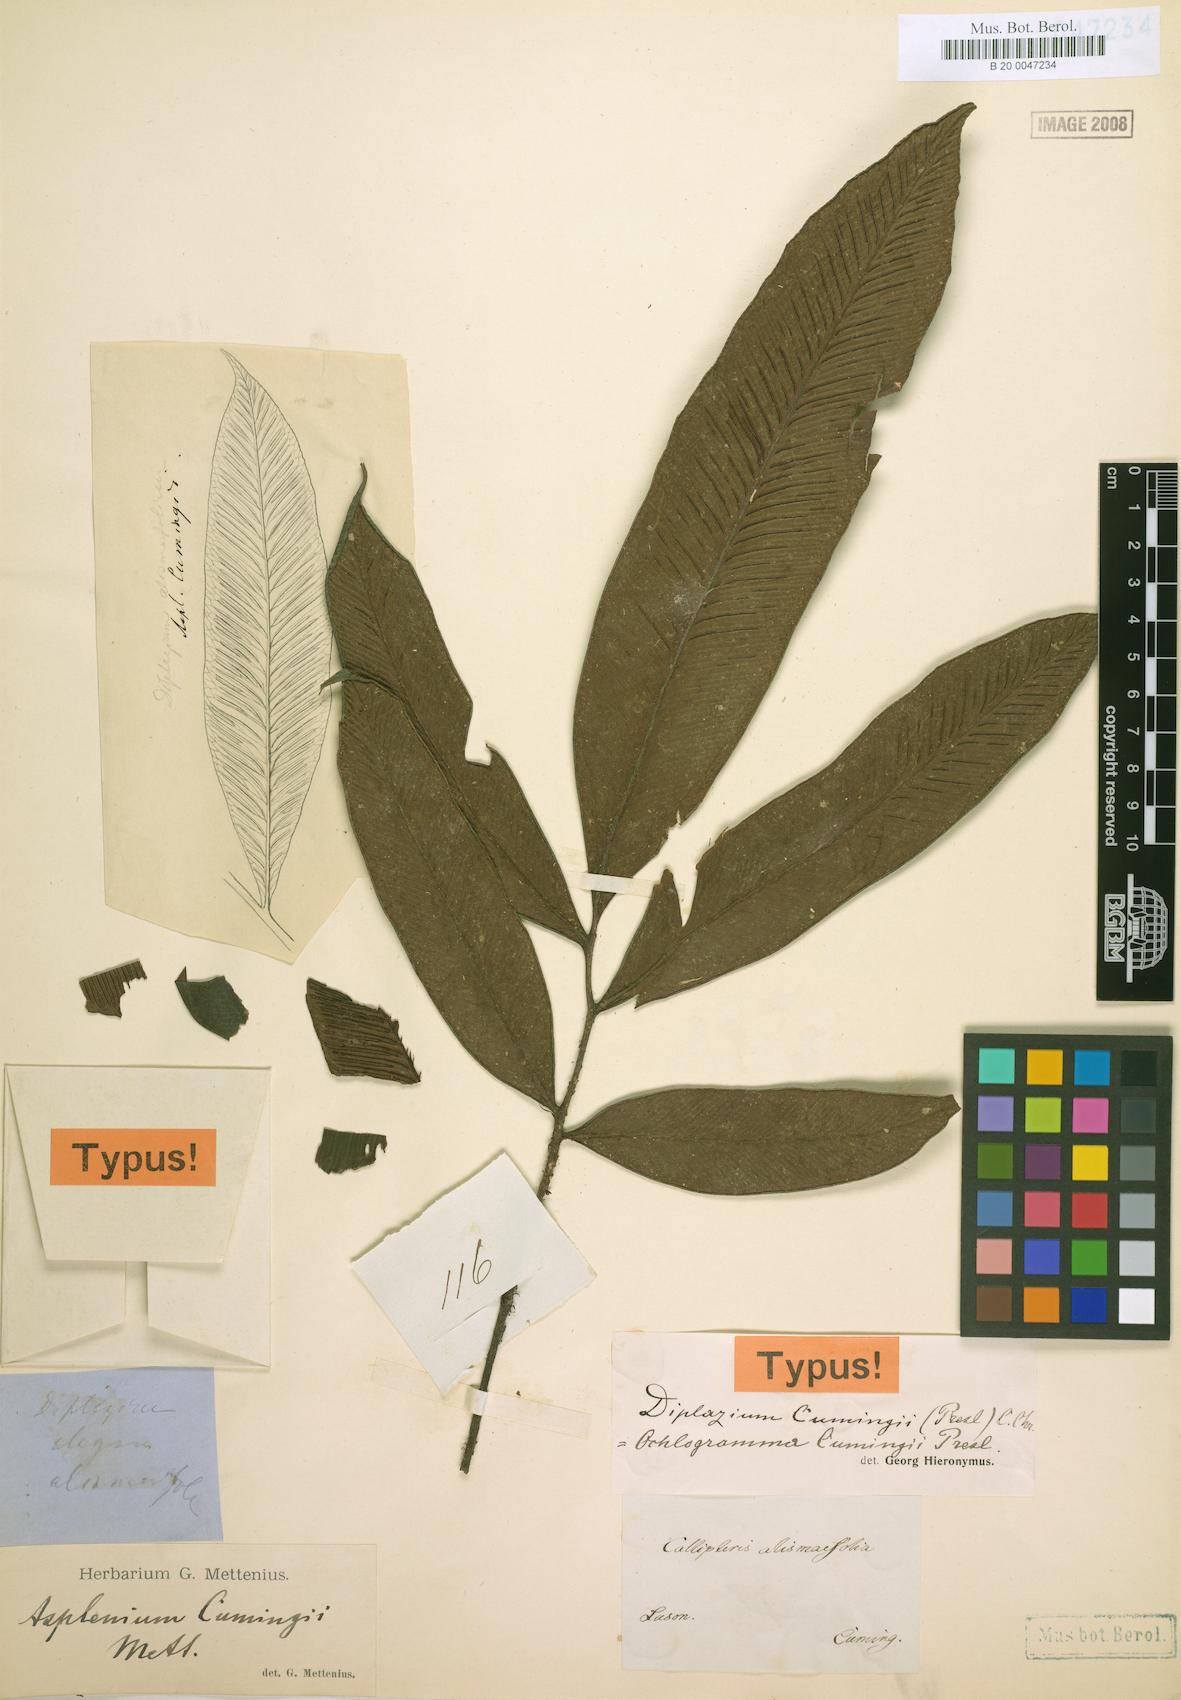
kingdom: Plantae
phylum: Tracheophyta
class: Polypodiopsida
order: Polypodiales
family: Athyriaceae
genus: Diplazium
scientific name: Diplazium cumingii
